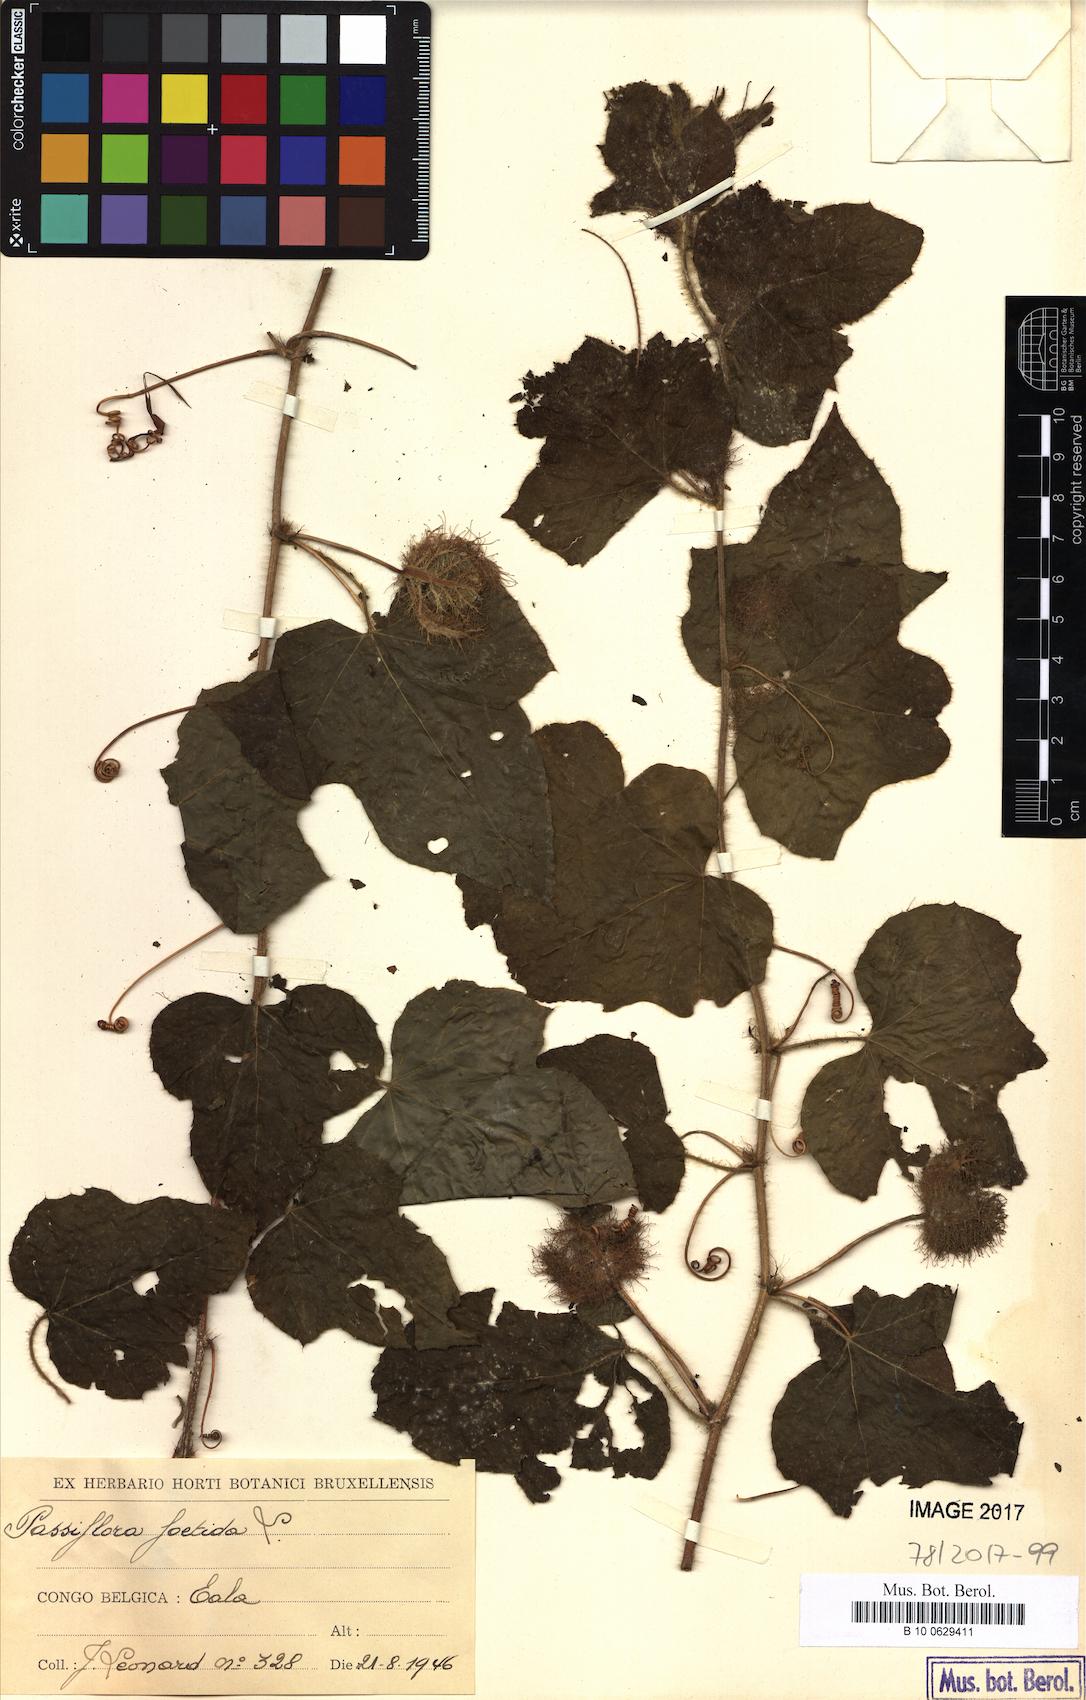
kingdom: Plantae
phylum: Tracheophyta
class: Magnoliopsida
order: Malpighiales
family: Passifloraceae
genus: Passiflora
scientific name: Passiflora foetida
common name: Fetid passionflower
